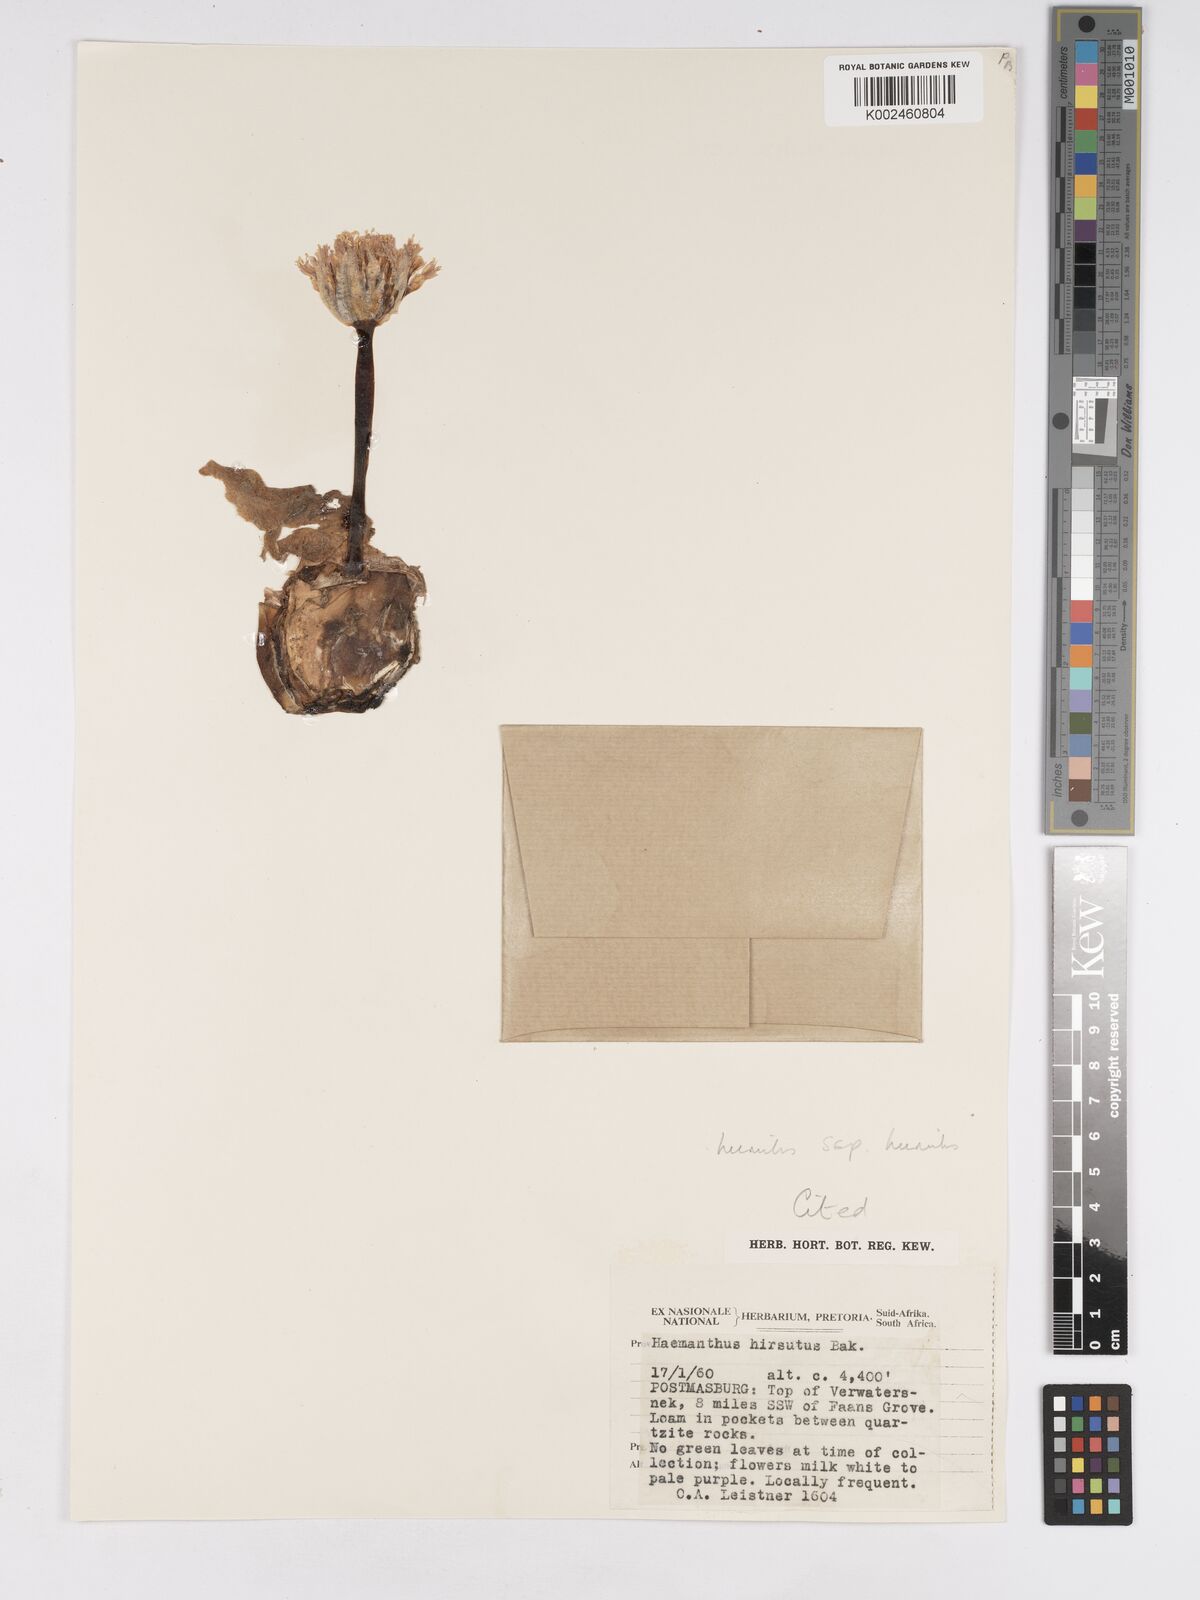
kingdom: Plantae
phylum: Tracheophyta
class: Liliopsida
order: Asparagales
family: Amaryllidaceae
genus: Haemanthus
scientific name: Haemanthus humilis
